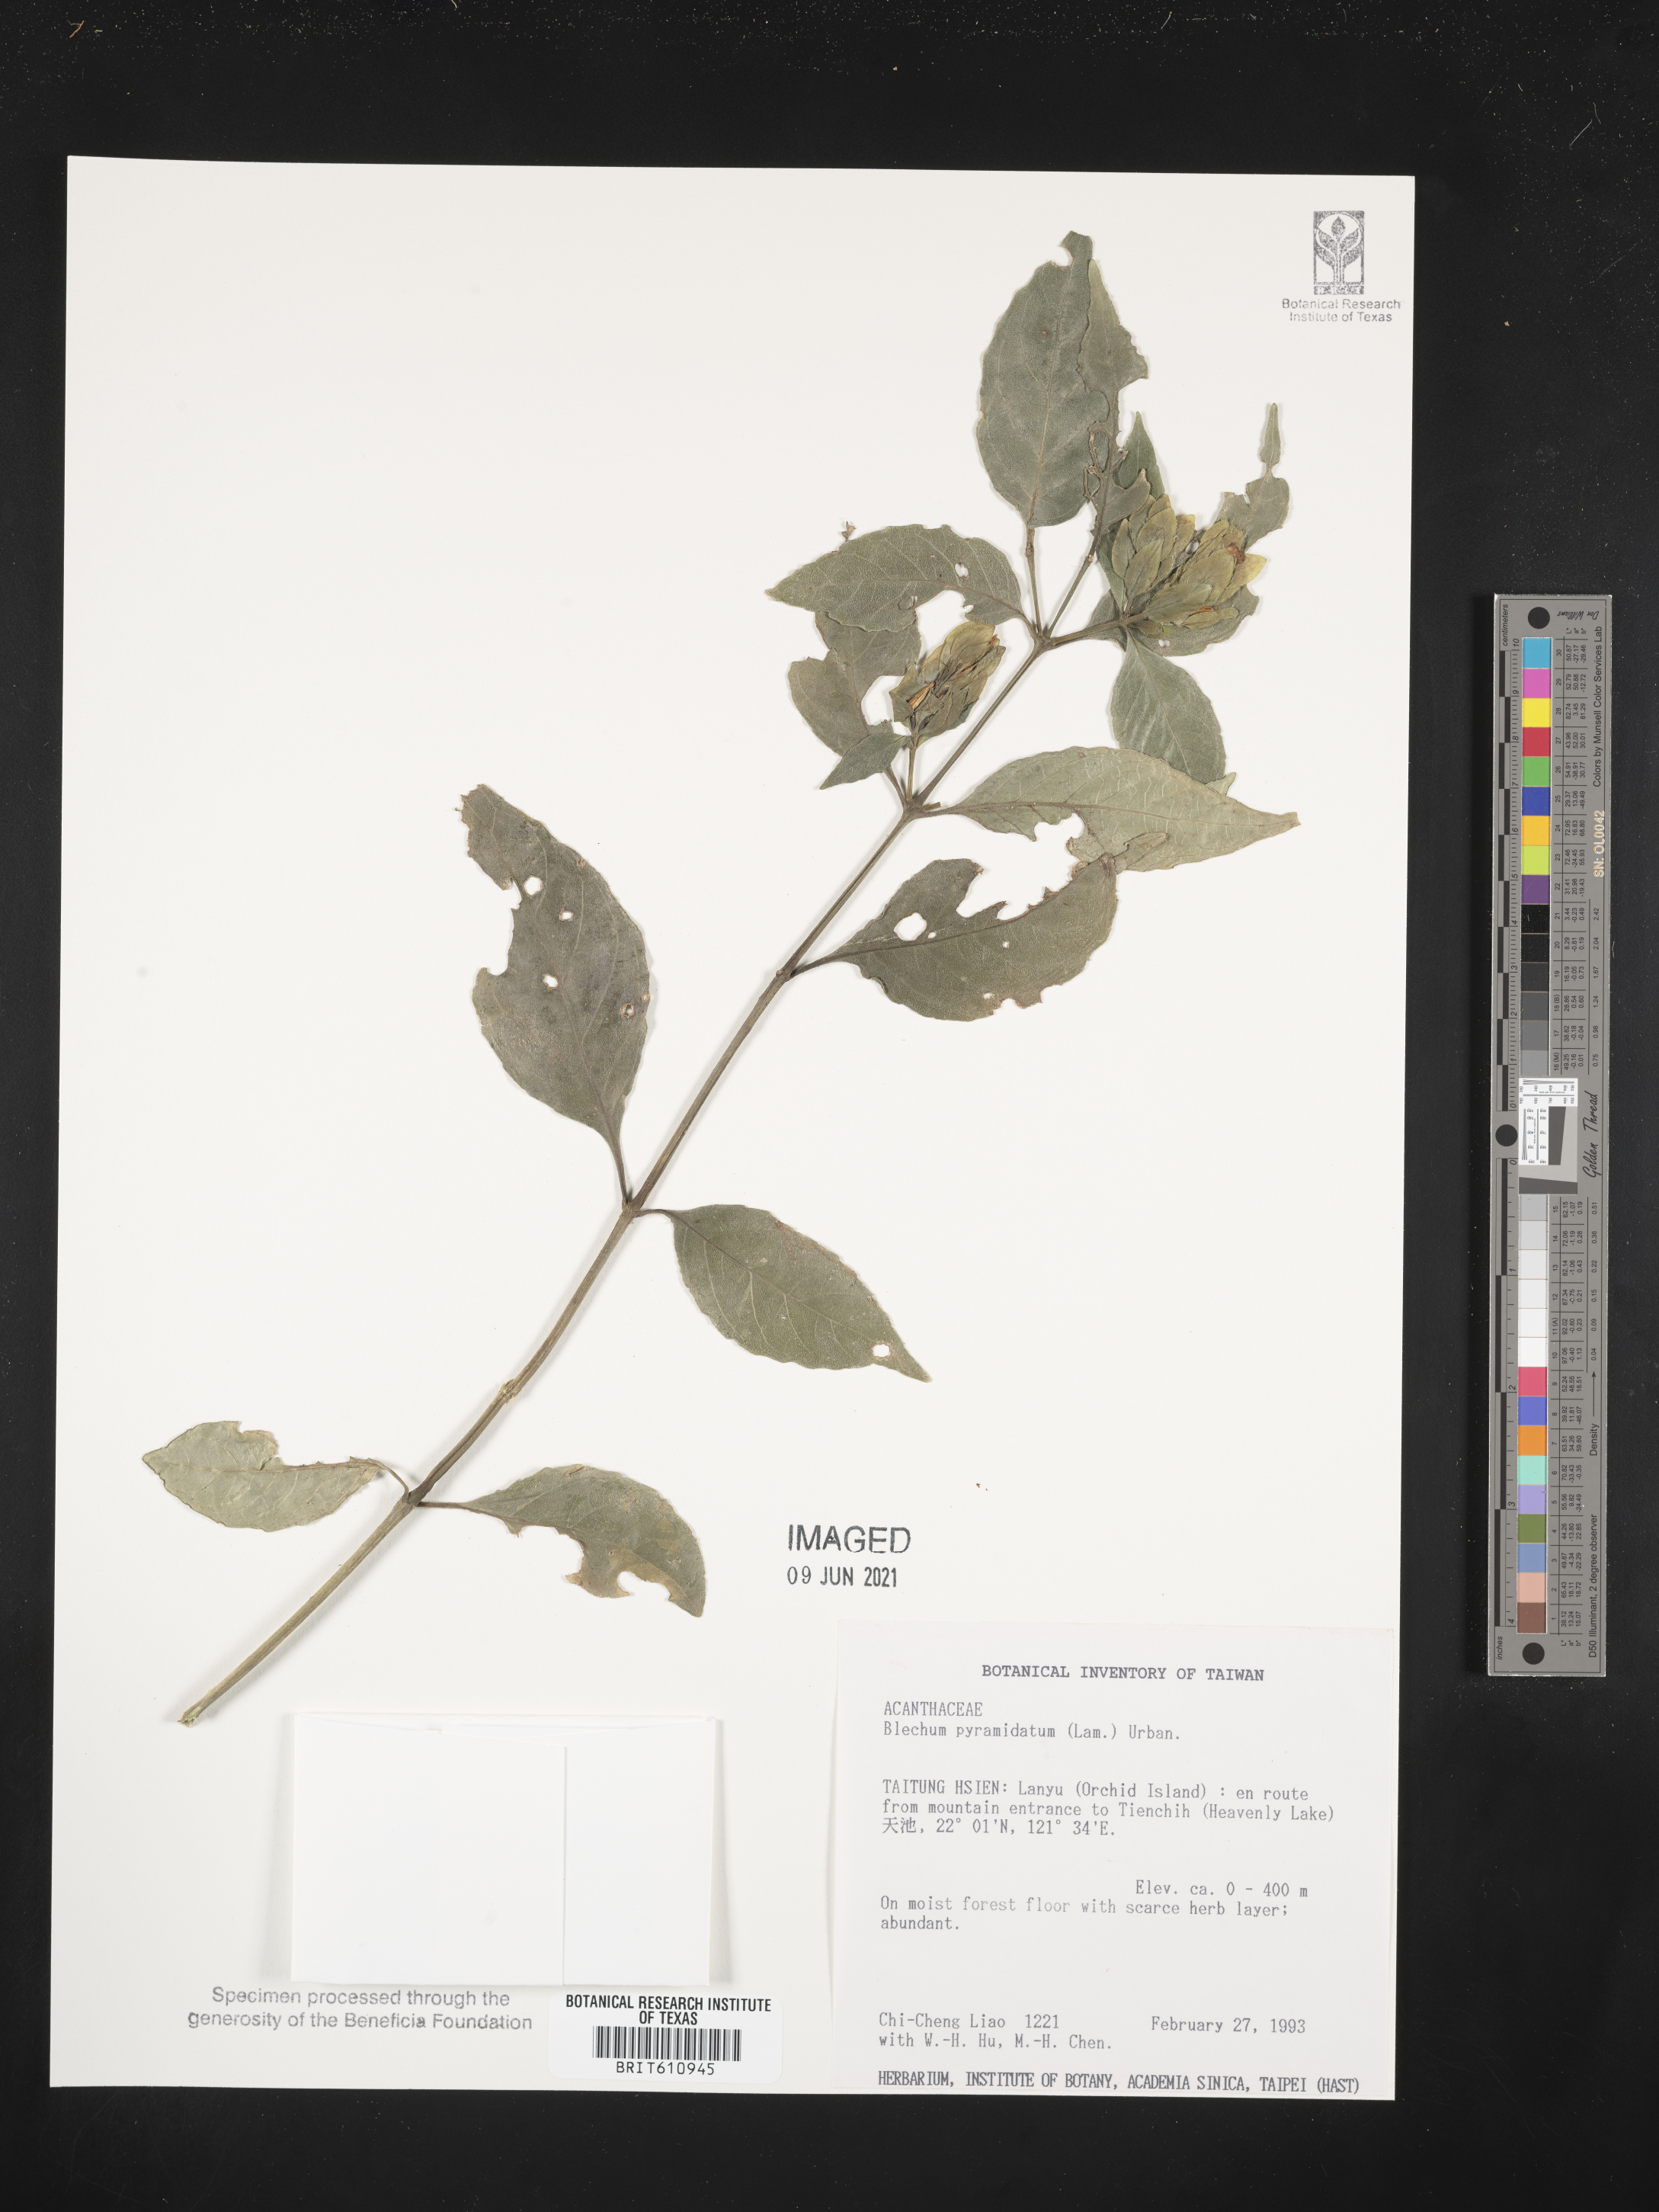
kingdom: Plantae
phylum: Tracheophyta
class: Magnoliopsida
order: Lamiales
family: Acanthaceae
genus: Ruellia
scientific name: Ruellia blechum
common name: Browne's blechum
